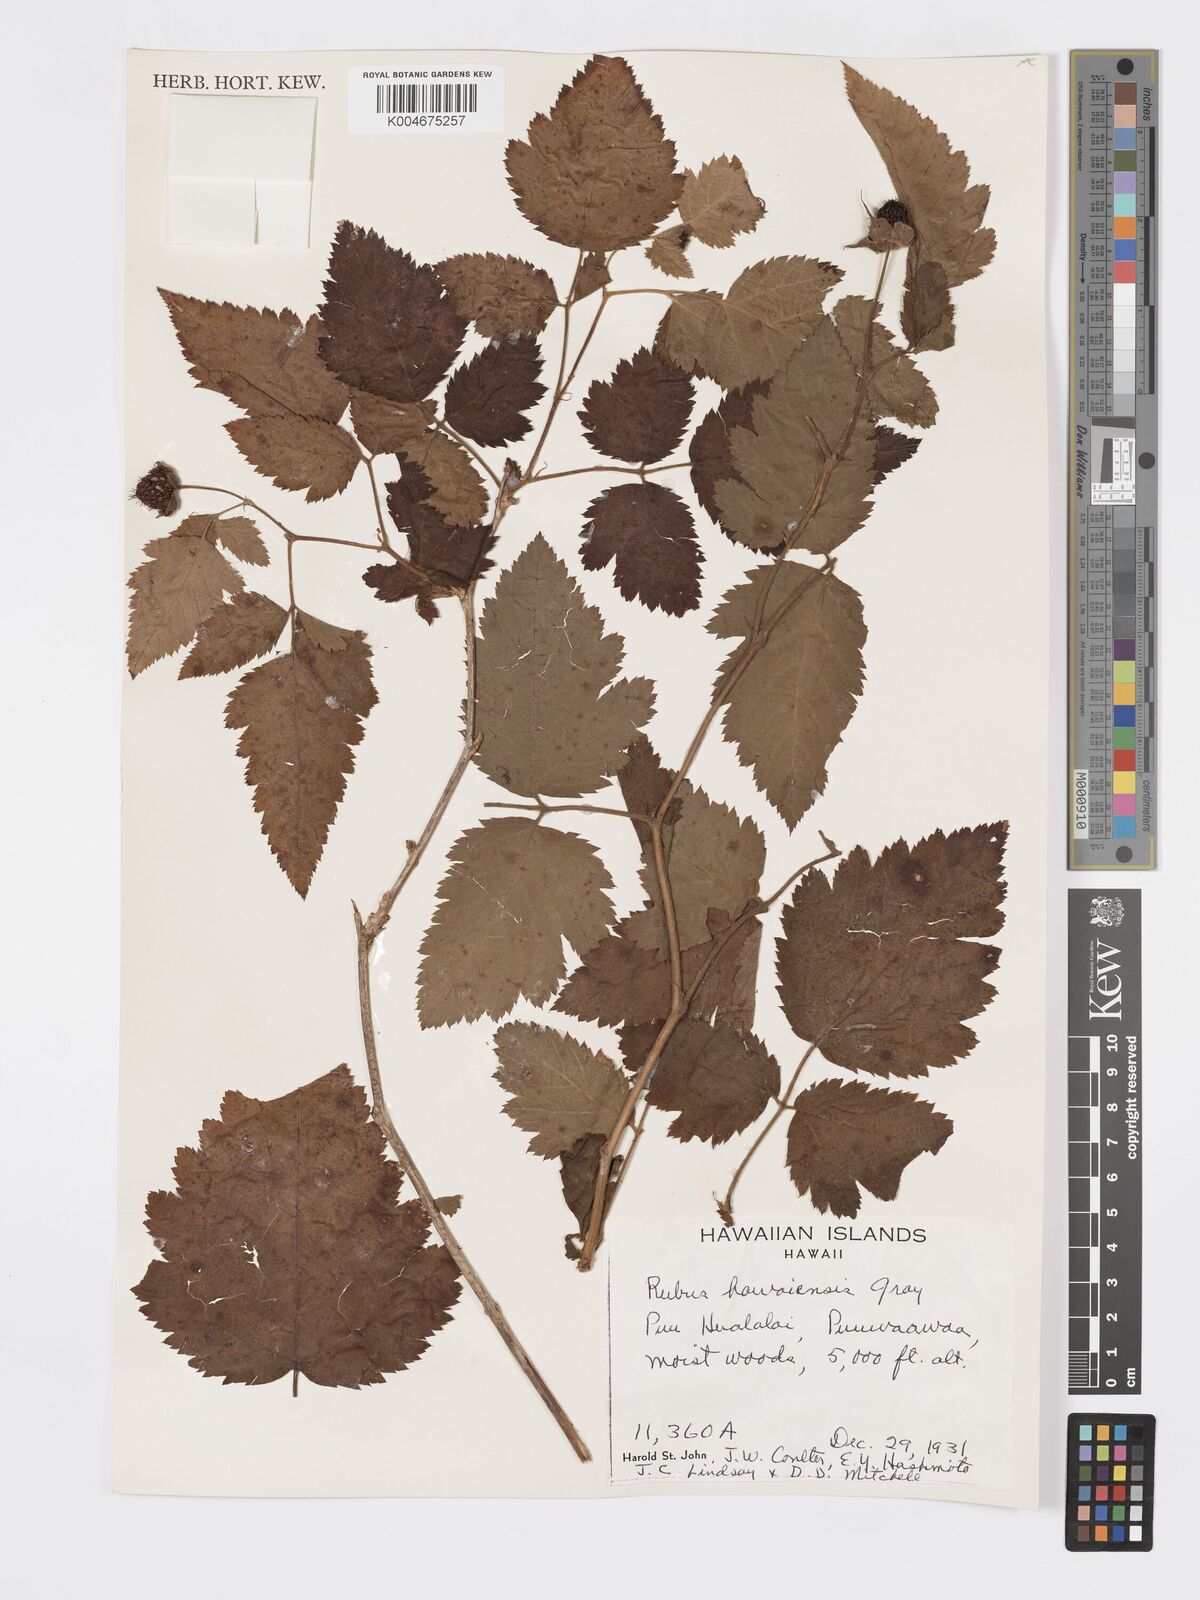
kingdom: Plantae
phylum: Tracheophyta
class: Magnoliopsida
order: Rosales
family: Rosaceae
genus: Rubus
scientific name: Rubus hawaiensis
